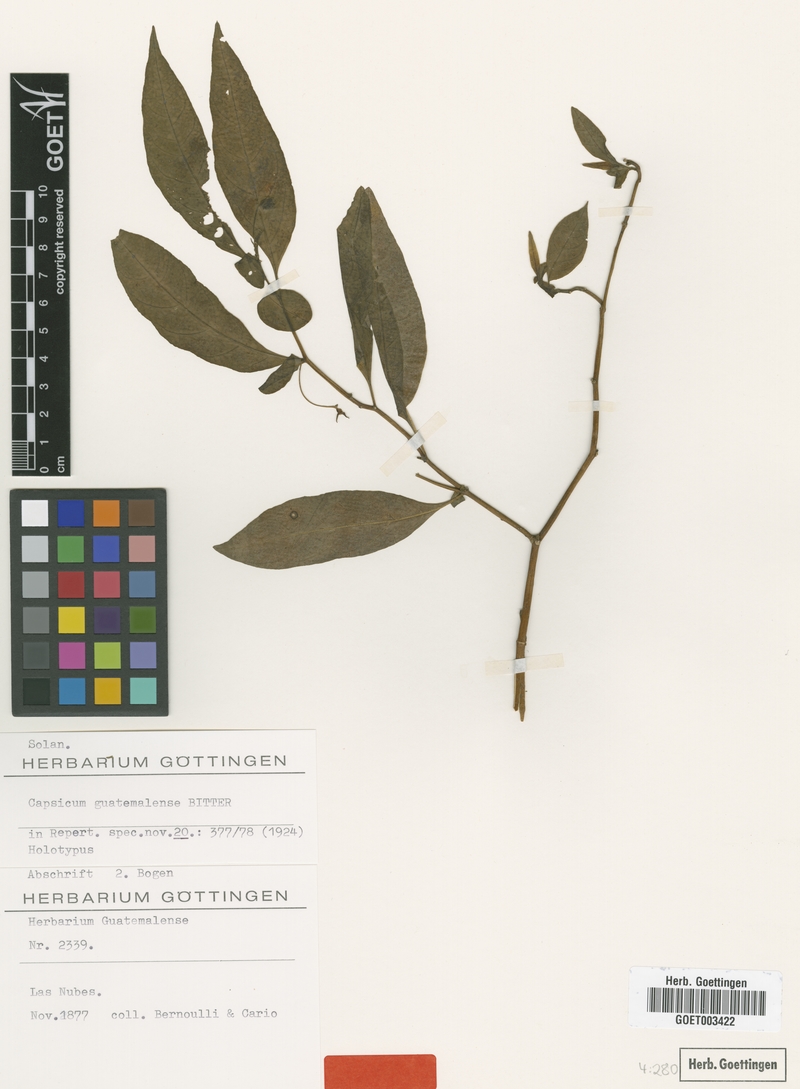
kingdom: Plantae
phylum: Tracheophyta
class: Magnoliopsida
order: Solanales
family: Solanaceae
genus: Capsicum
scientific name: Capsicum lanceolatum
